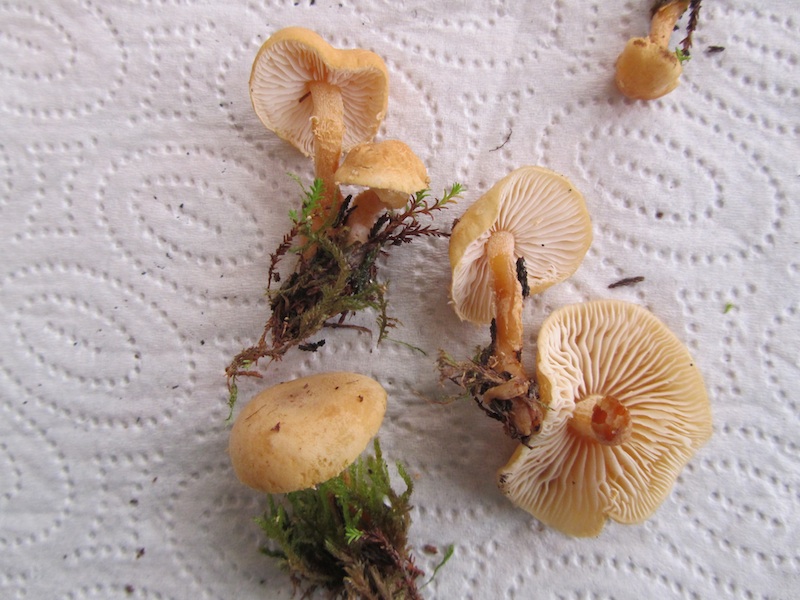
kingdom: Fungi
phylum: Basidiomycota
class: Agaricomycetes
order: Agaricales
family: Tricholomataceae
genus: Cystoderma
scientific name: Cystoderma amianthinum
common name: okkergul grynhat
